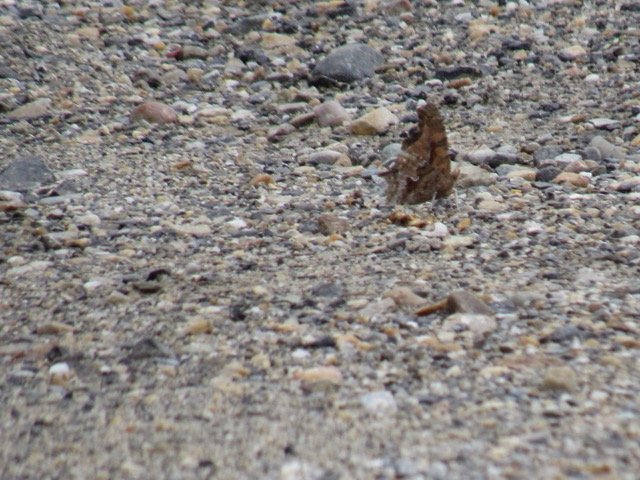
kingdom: Animalia
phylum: Arthropoda
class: Insecta
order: Lepidoptera
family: Nymphalidae
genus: Polygonia
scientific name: Polygonia comma
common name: Eastern Comma
